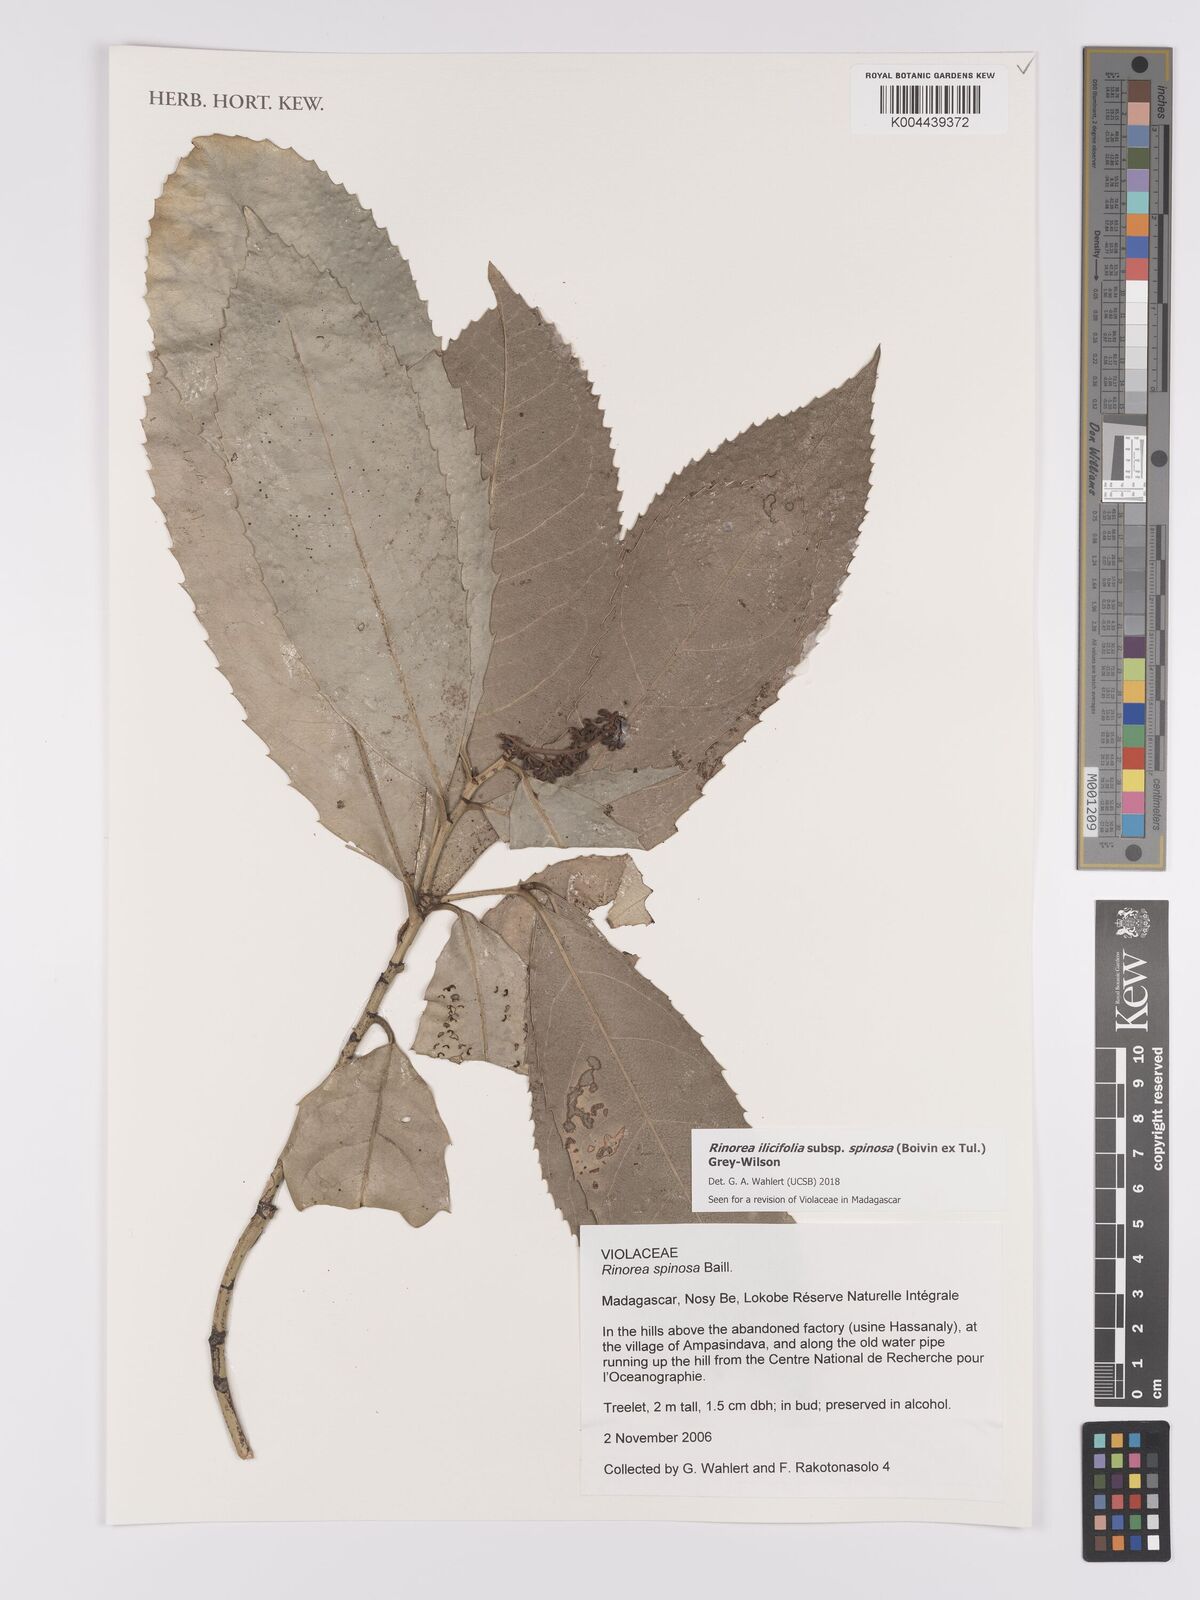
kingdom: Plantae
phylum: Tracheophyta
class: Magnoliopsida
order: Malpighiales
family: Violaceae
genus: Rinorea
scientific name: Rinorea spinosa
